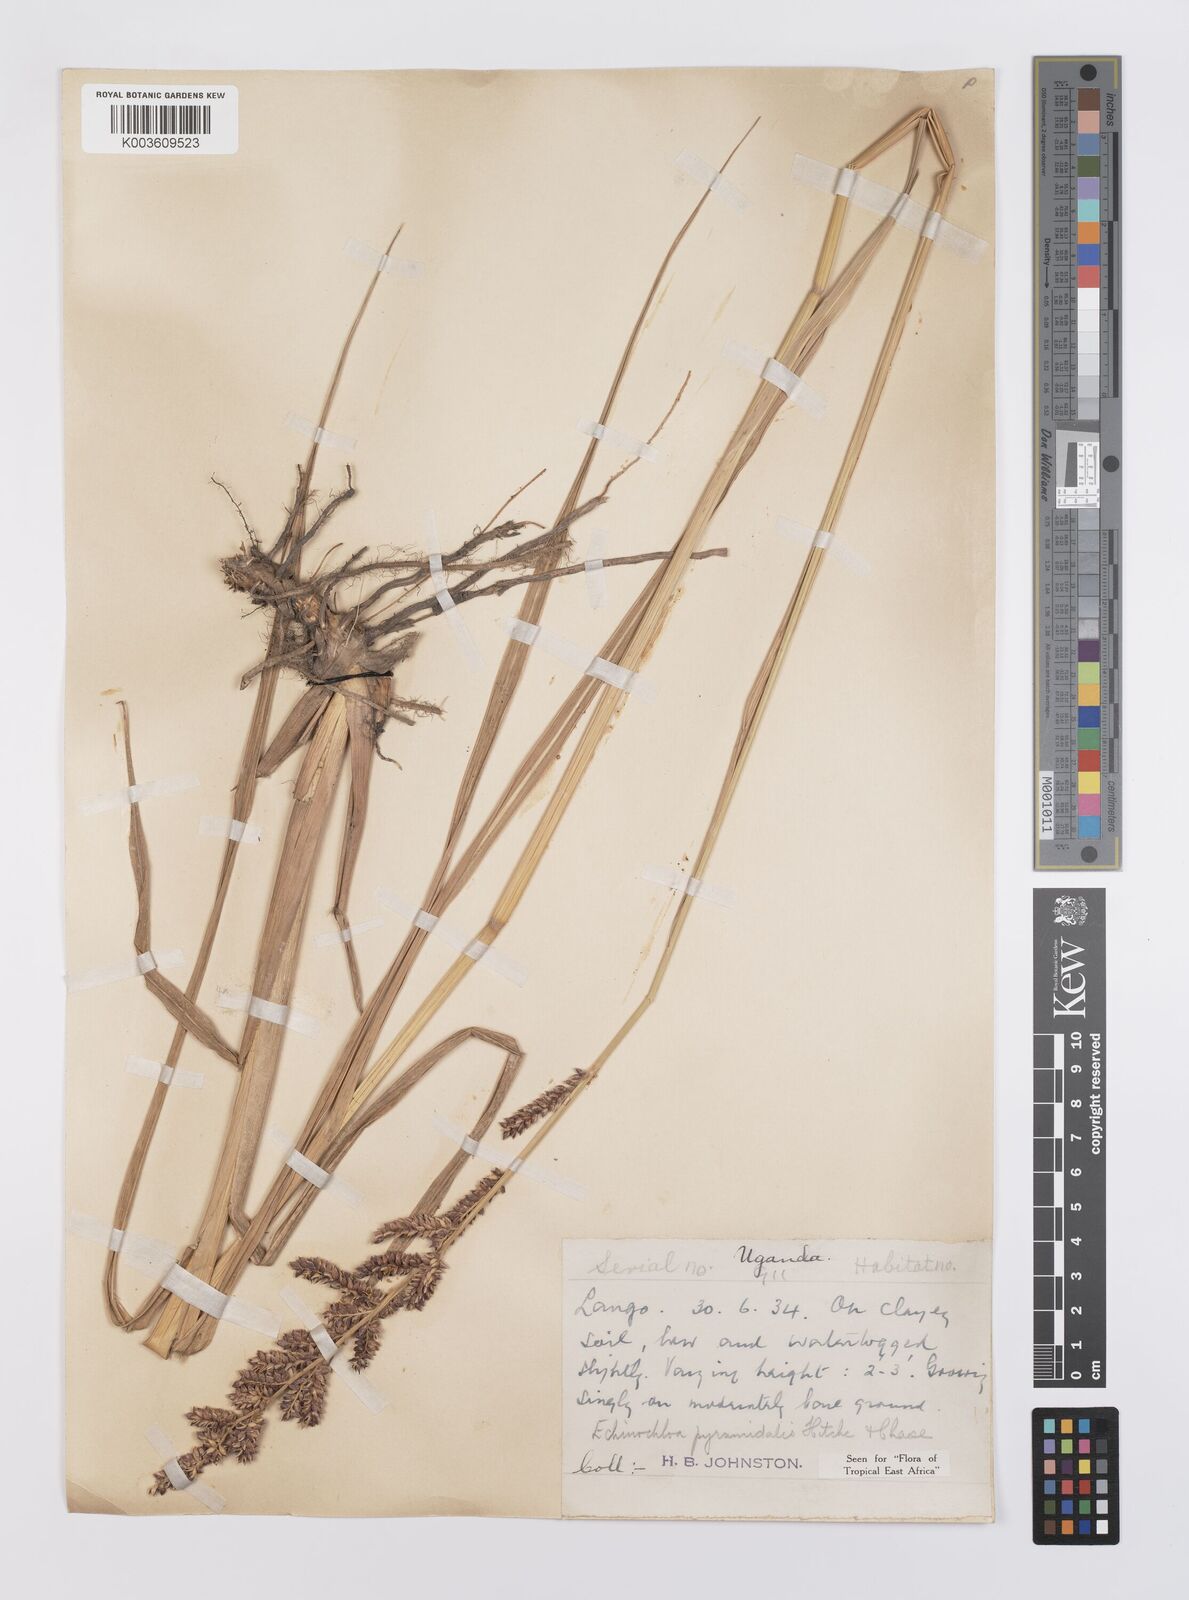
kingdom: Plantae
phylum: Tracheophyta
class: Liliopsida
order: Poales
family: Poaceae
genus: Echinochloa
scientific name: Echinochloa pyramidalis
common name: Antelope grass
